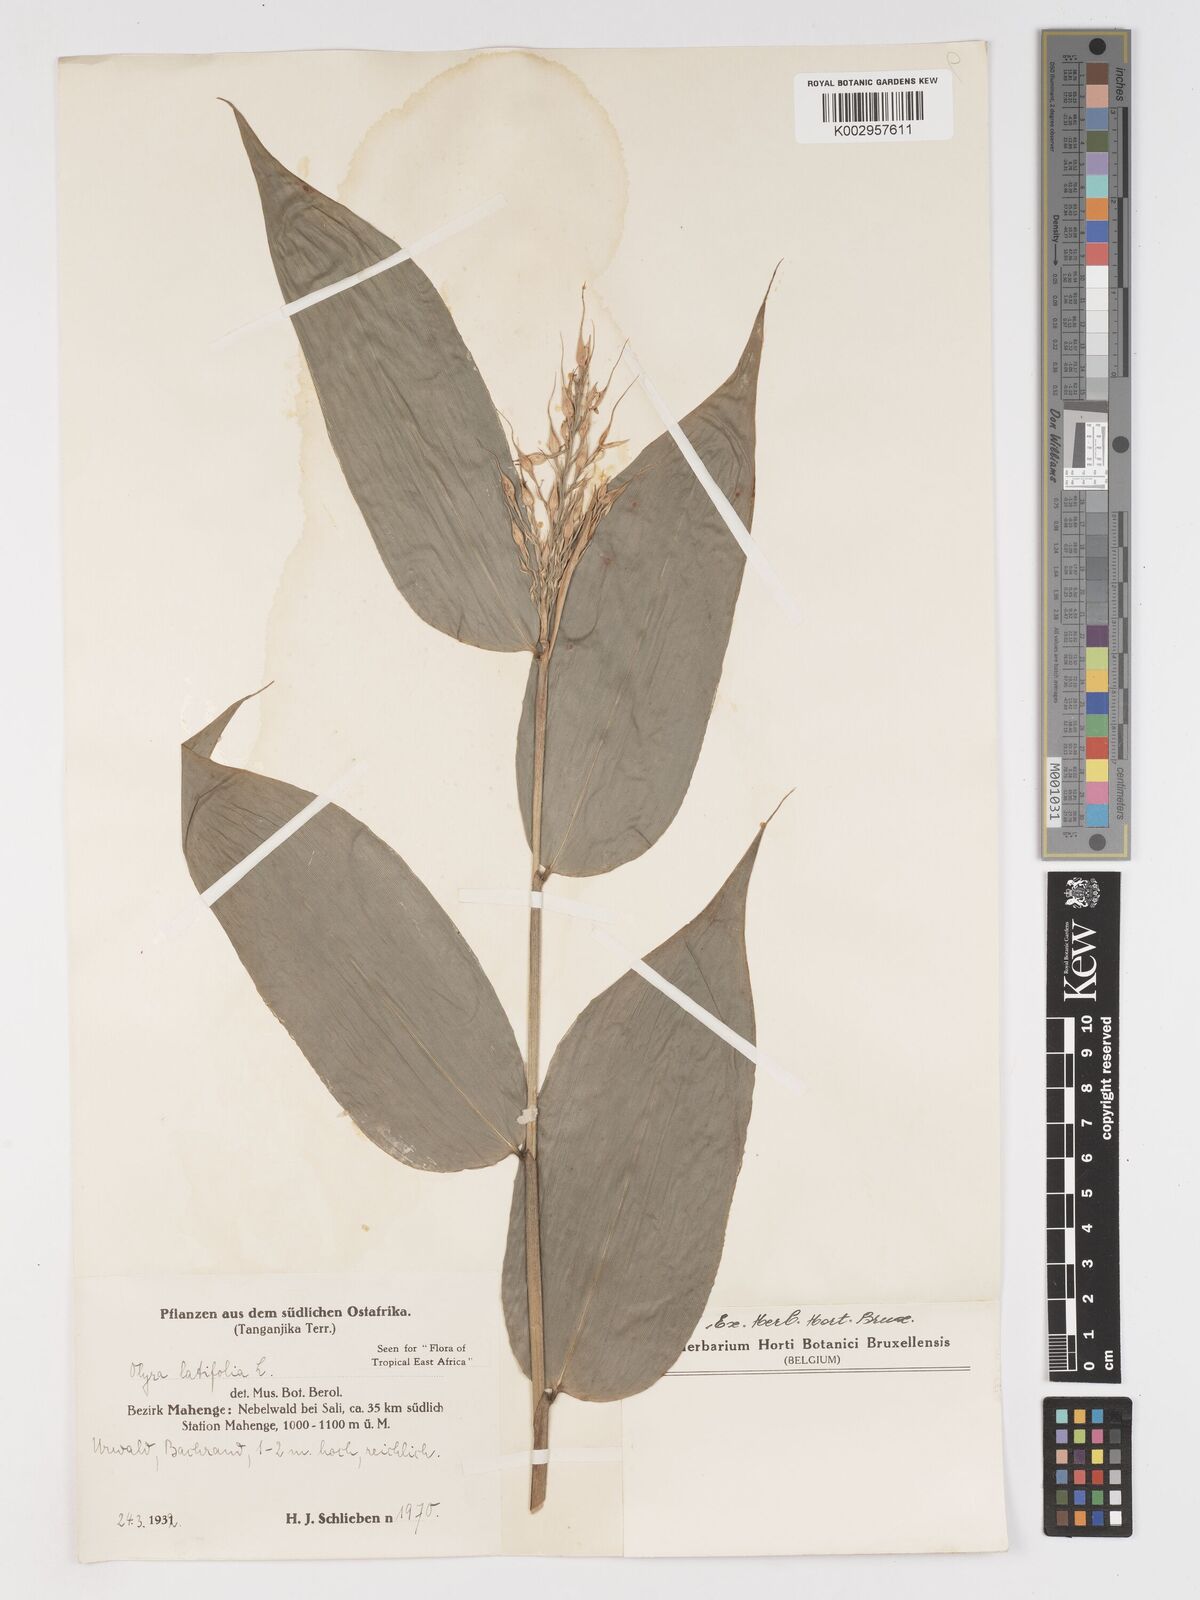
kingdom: Plantae
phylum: Tracheophyta
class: Liliopsida
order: Poales
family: Poaceae
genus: Olyra
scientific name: Olyra latifolia
